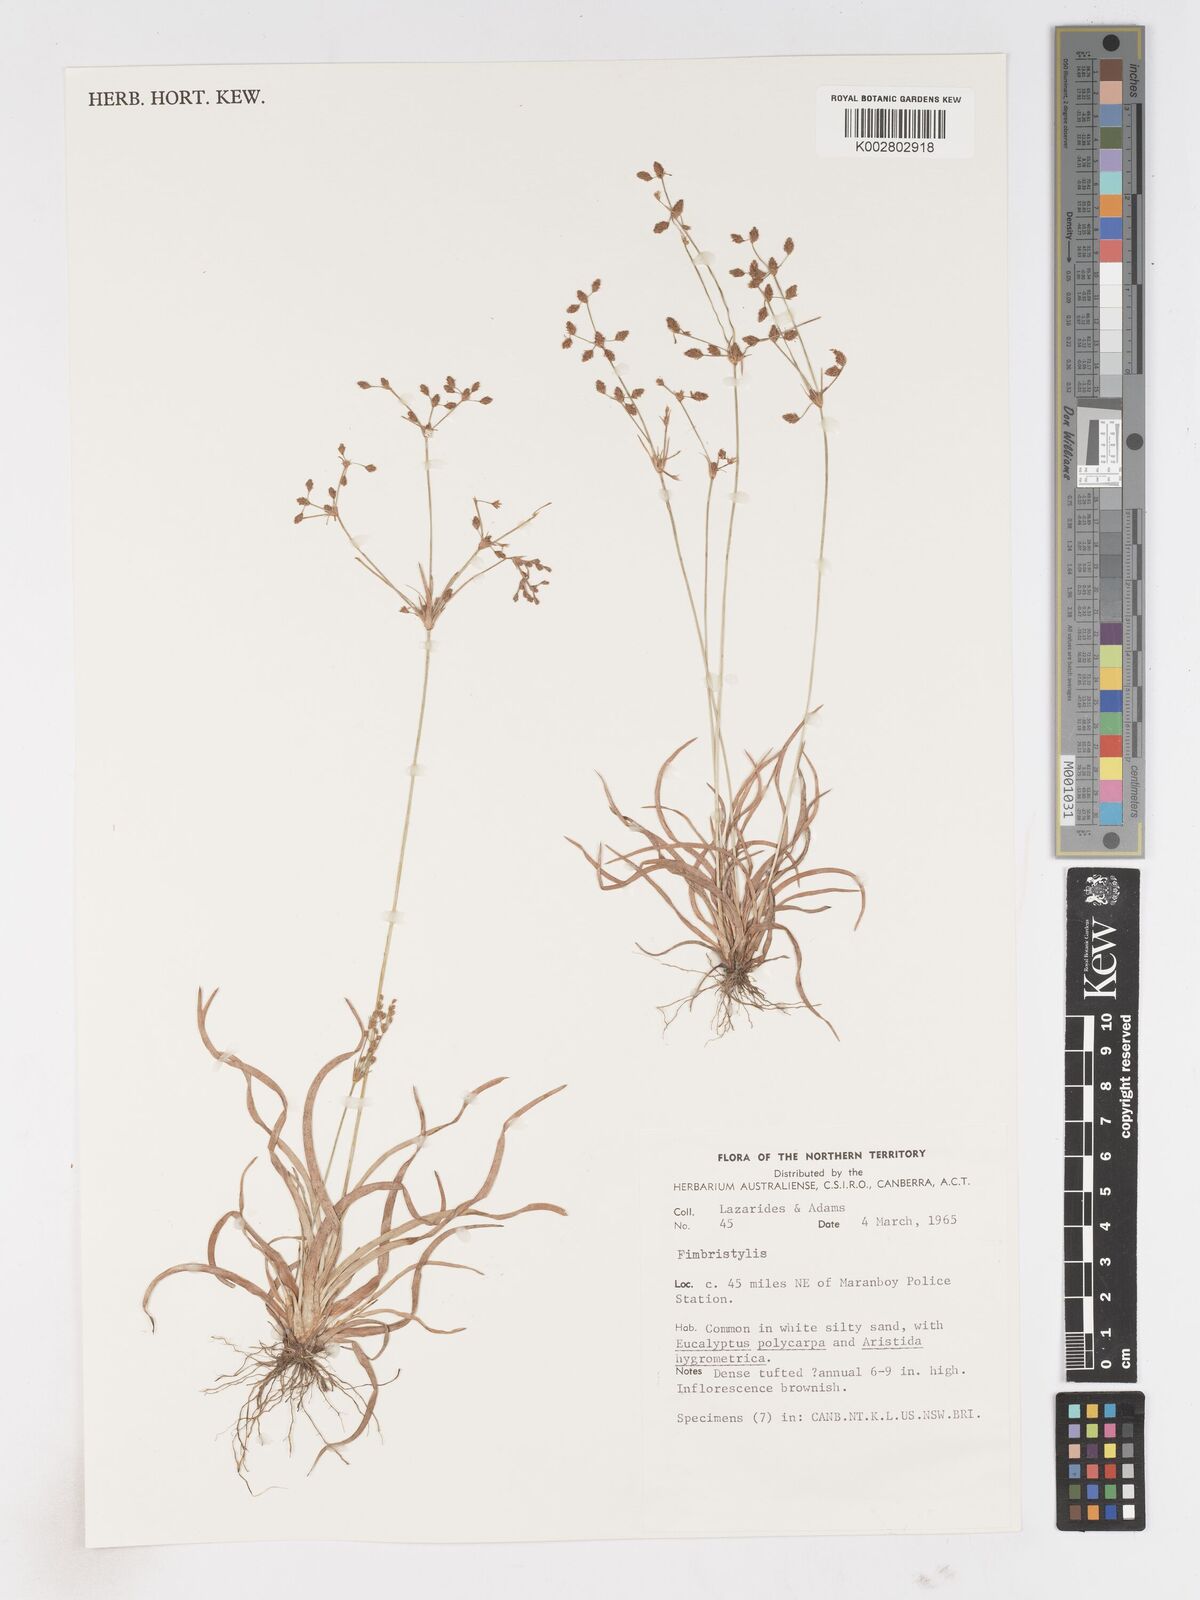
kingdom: Plantae
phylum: Tracheophyta
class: Liliopsida
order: Poales
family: Cyperaceae
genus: Fimbristylis
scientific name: Fimbristylis
